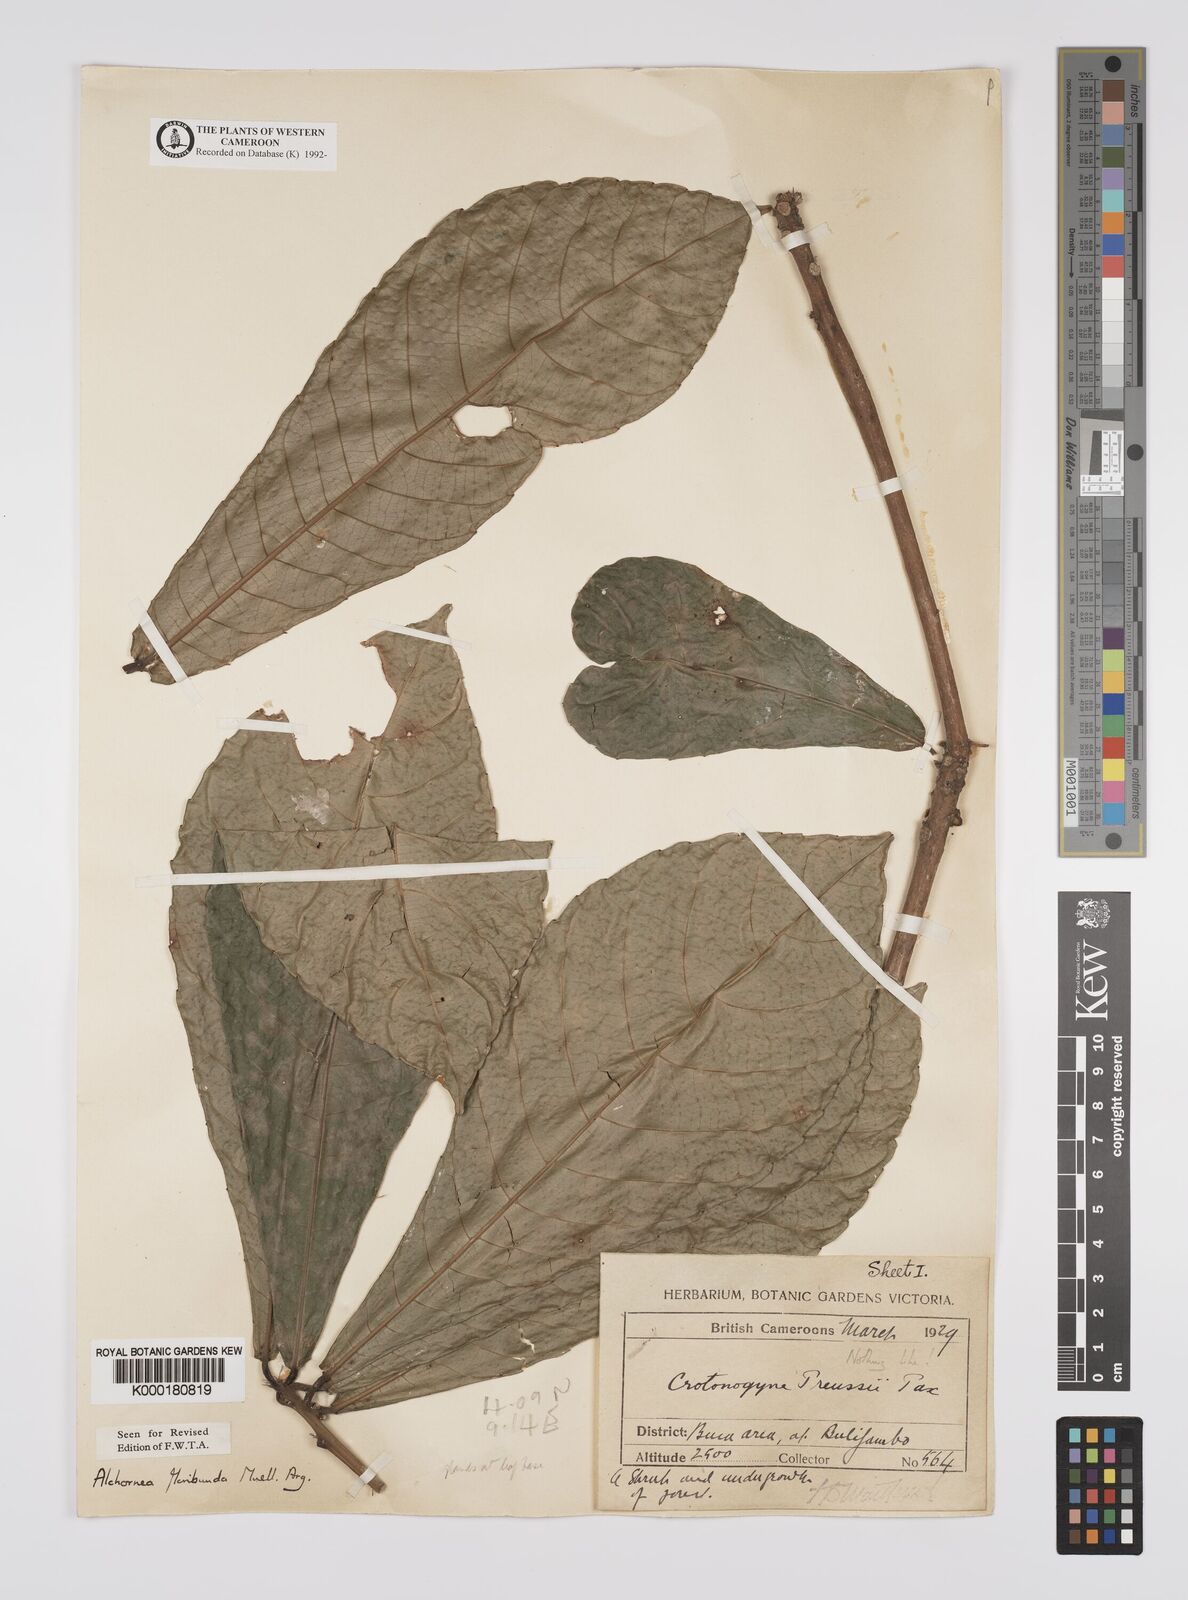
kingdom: Plantae
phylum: Tracheophyta
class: Magnoliopsida
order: Malpighiales
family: Euphorbiaceae
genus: Alchornea
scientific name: Alchornea
